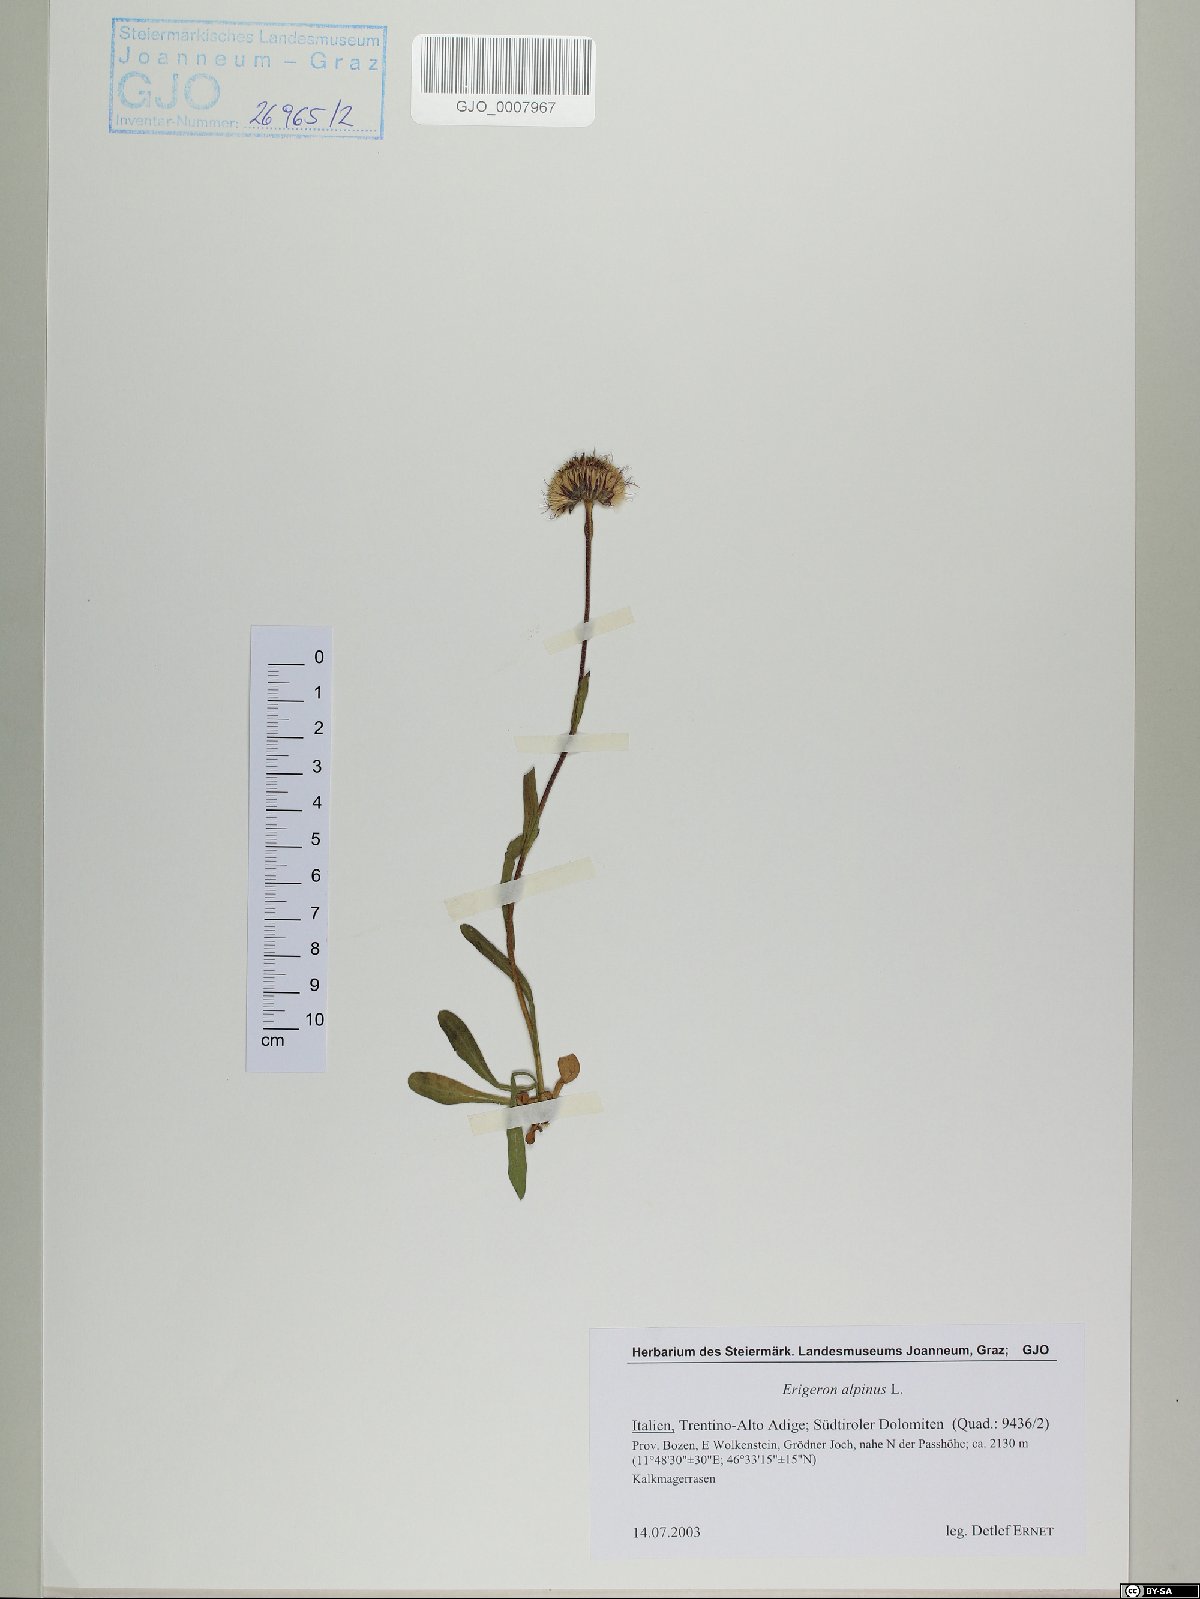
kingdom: Plantae
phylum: Tracheophyta
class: Magnoliopsida
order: Asterales
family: Asteraceae
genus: Erigeron
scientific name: Erigeron alpinus
